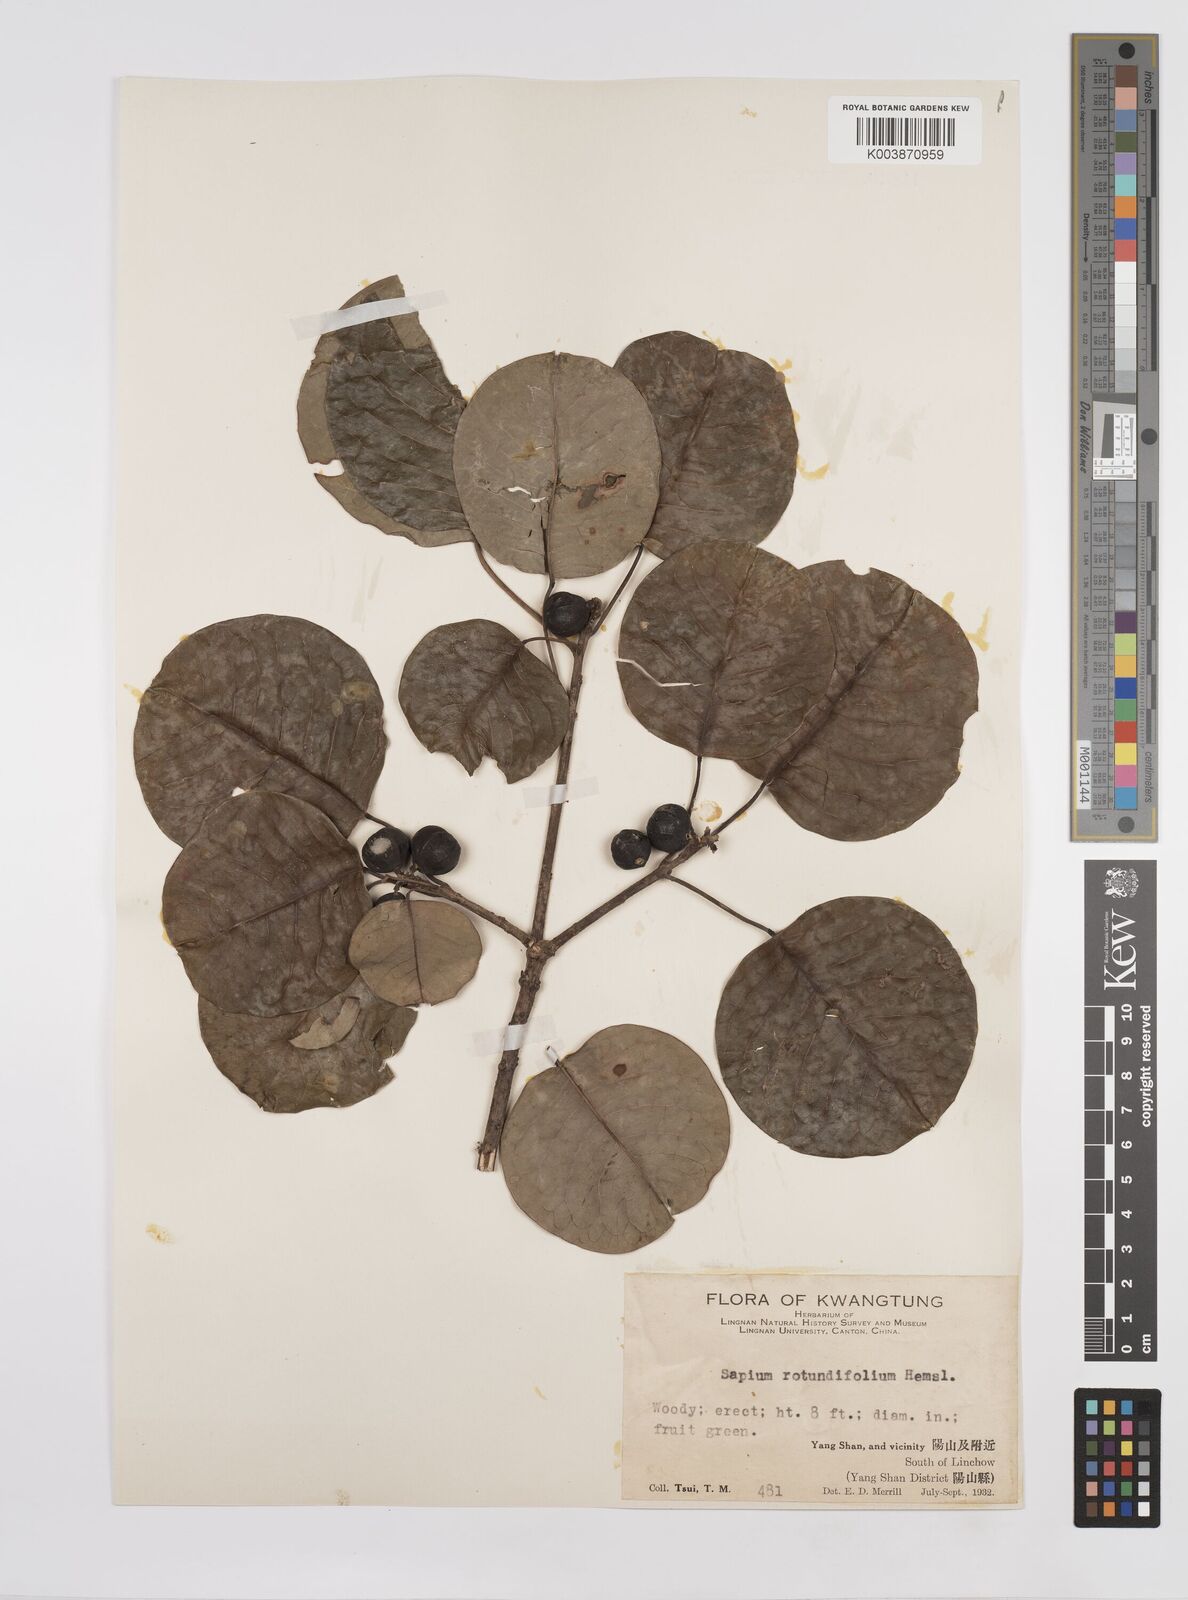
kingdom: Plantae
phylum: Tracheophyta
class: Magnoliopsida
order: Malpighiales
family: Euphorbiaceae
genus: Triadica
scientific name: Triadica rotundifolia
